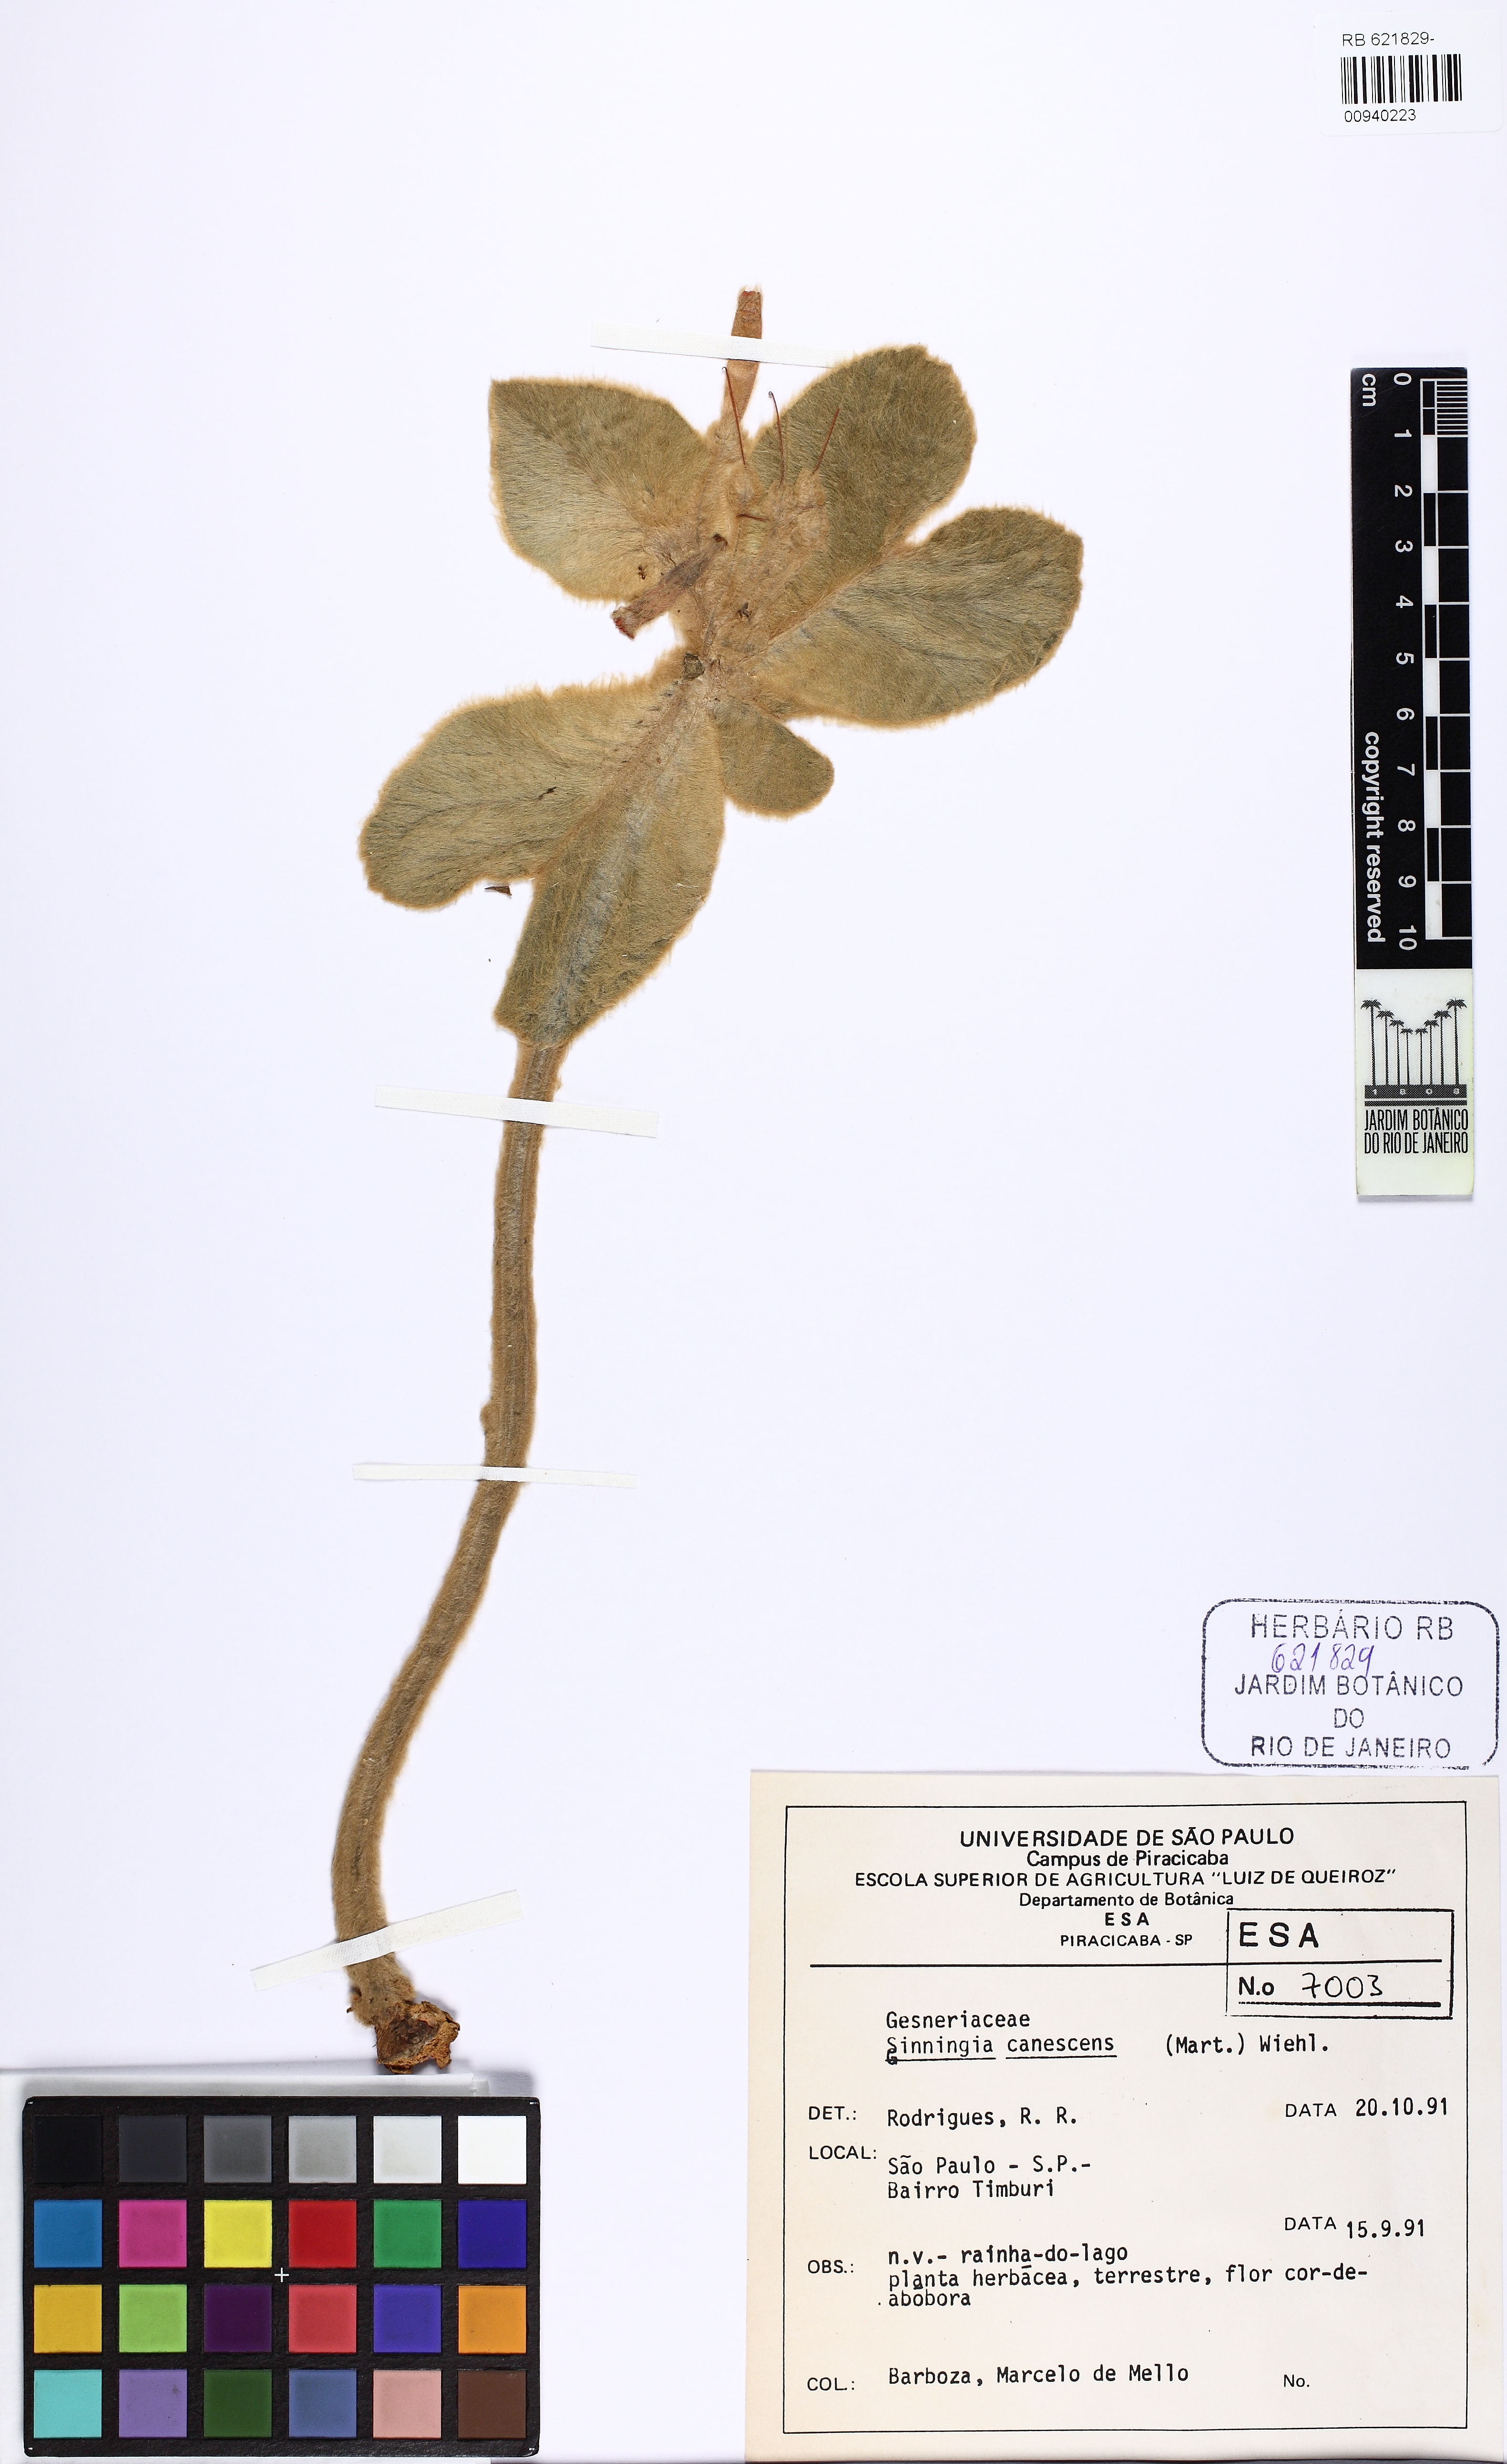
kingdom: Plantae
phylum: Tracheophyta
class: Magnoliopsida
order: Lamiales
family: Gesneriaceae
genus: Sinningia
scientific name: Sinningia canescens
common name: Queen-of-the-abyss
